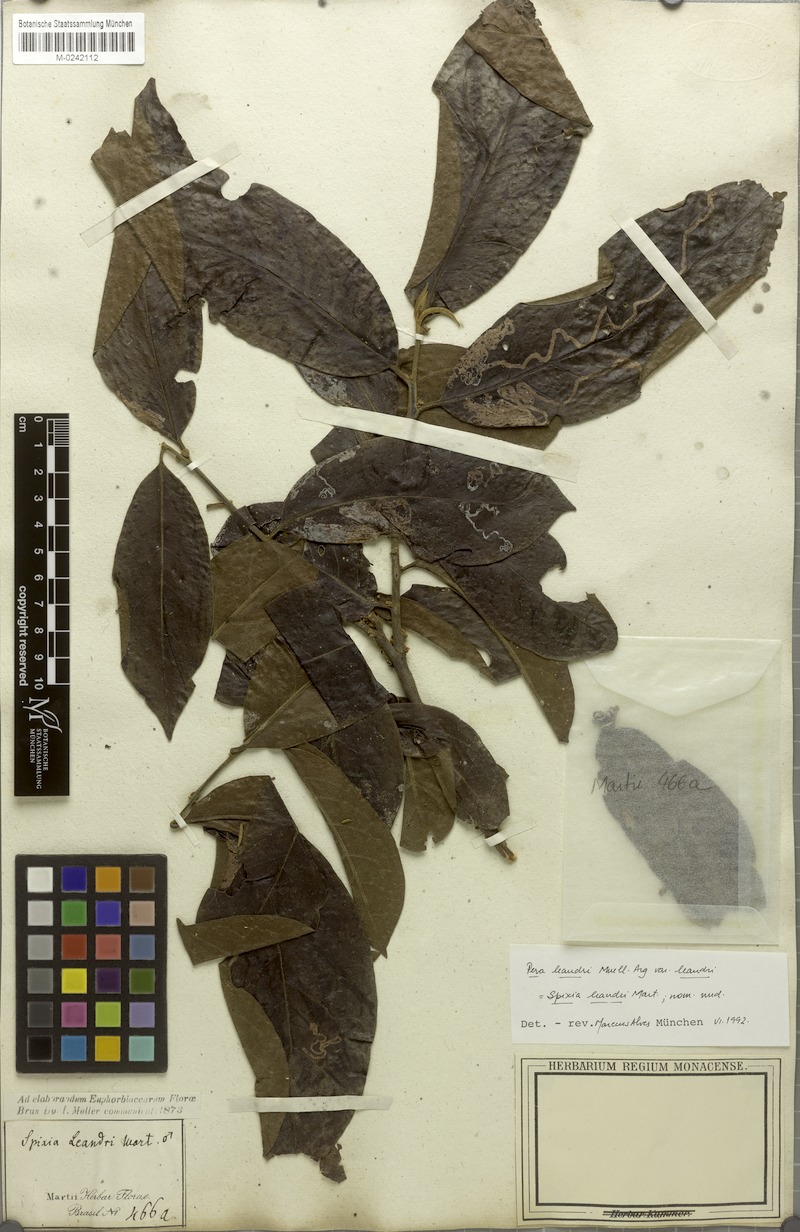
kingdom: Plantae
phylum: Tracheophyta
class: Magnoliopsida
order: Malpighiales
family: Peraceae
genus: Pera
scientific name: Pera distichophylla
